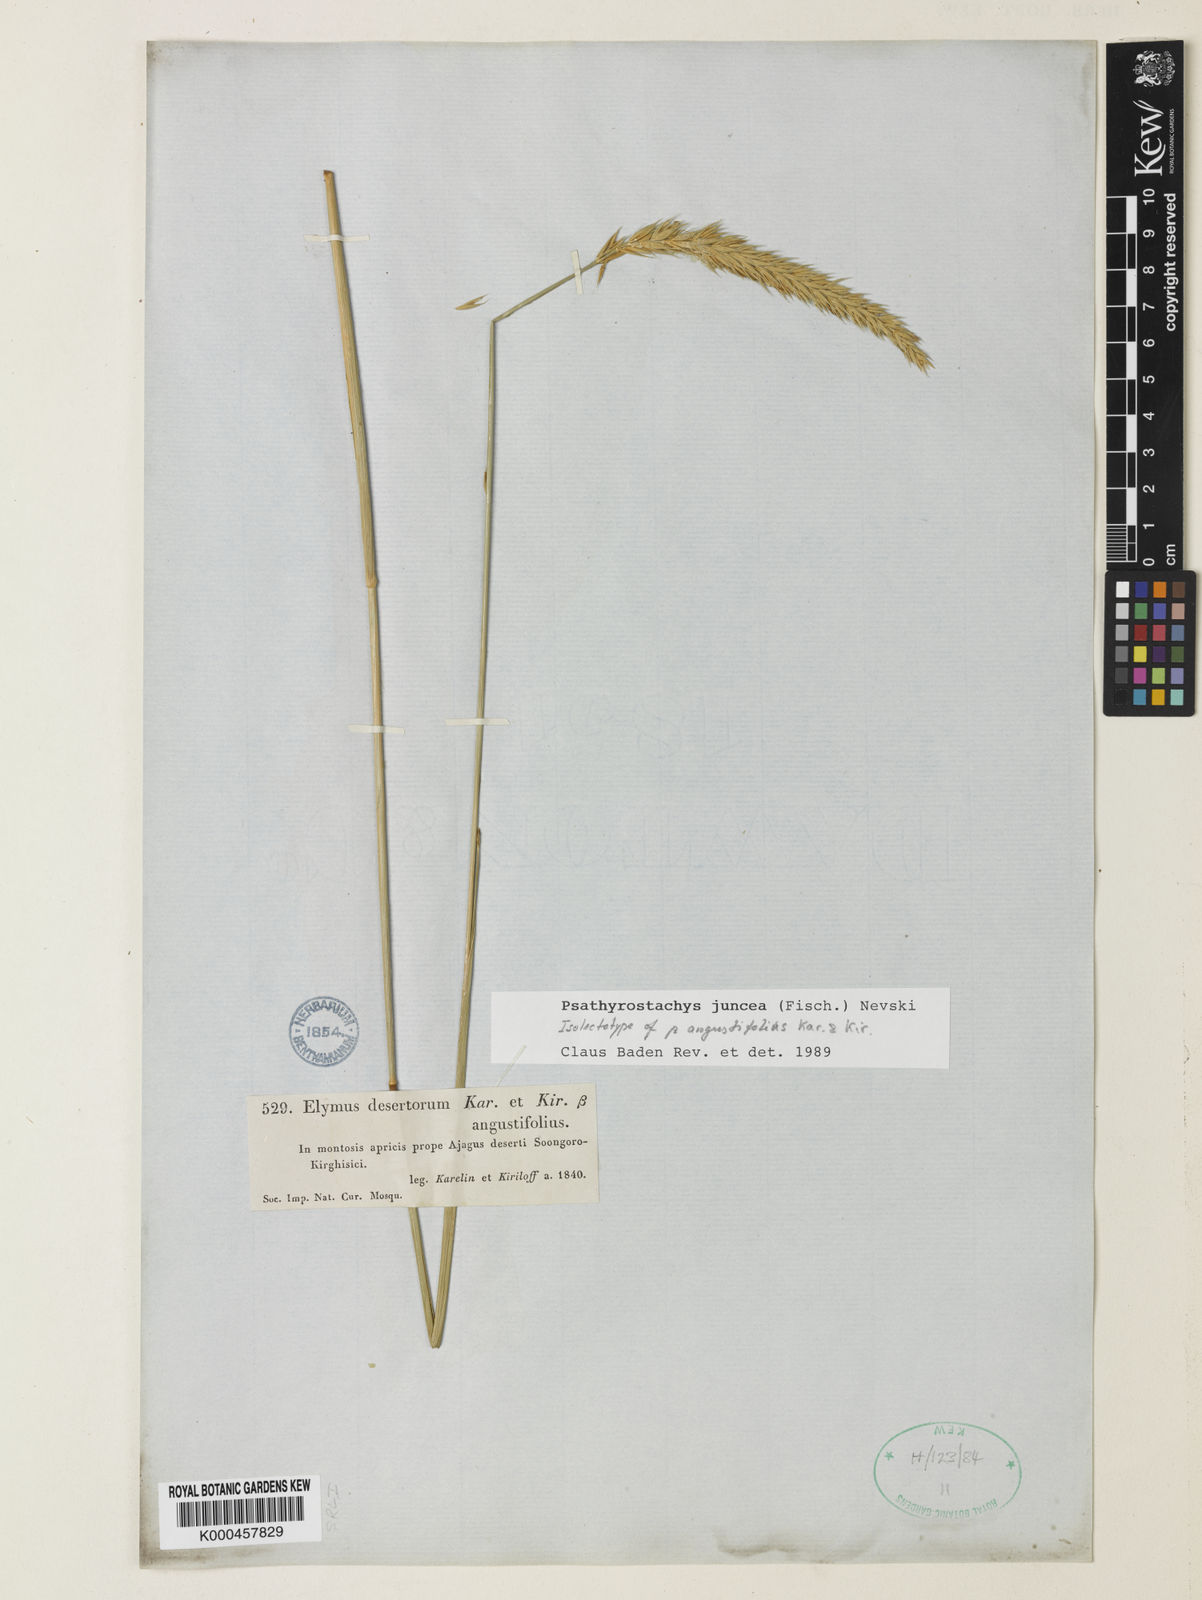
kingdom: Plantae
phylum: Tracheophyta
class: Liliopsida
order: Poales
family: Poaceae
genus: Psathyrostachys
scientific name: Psathyrostachys juncea
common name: Russian wildrye
